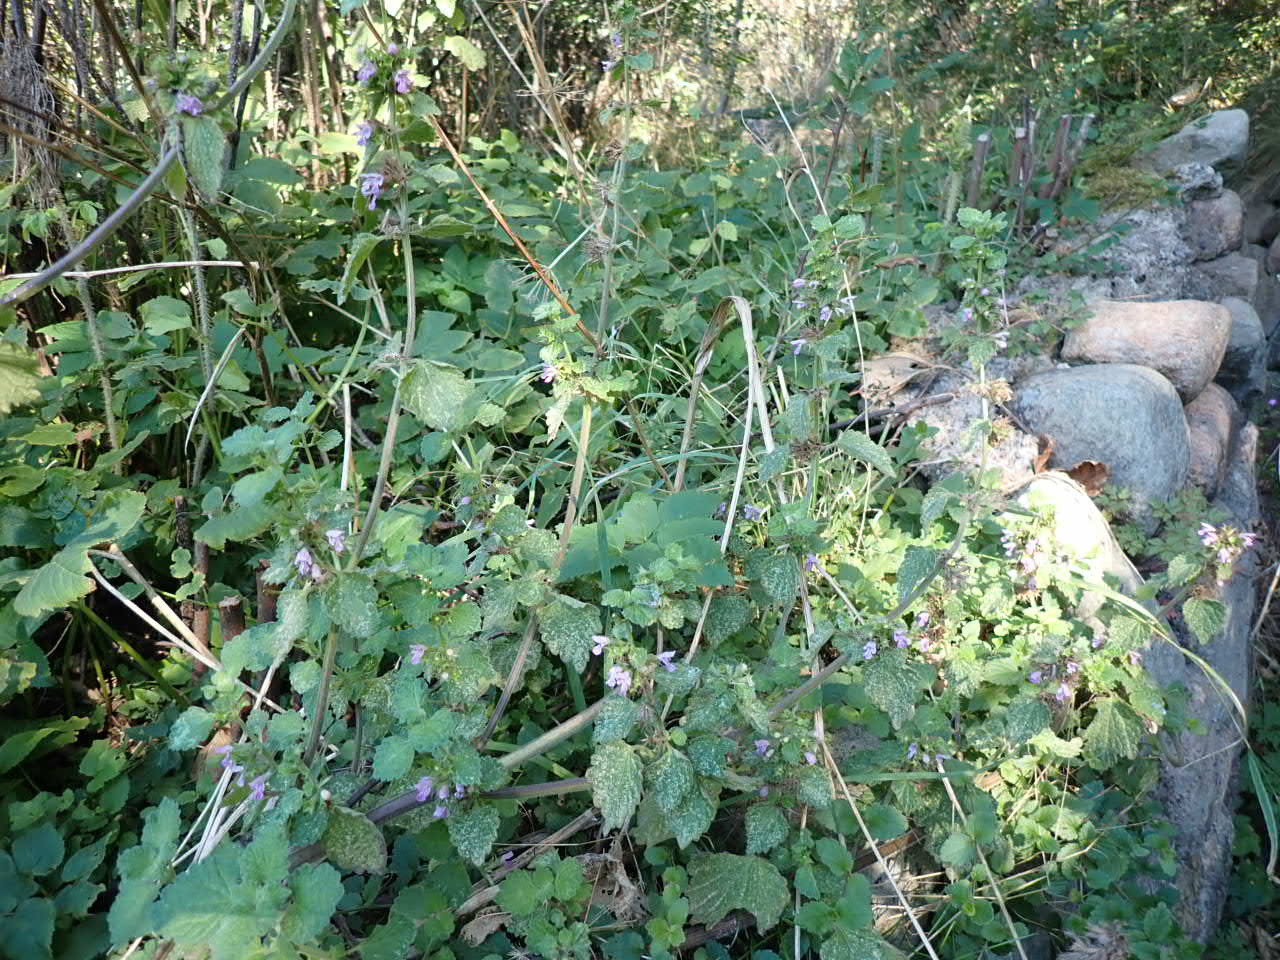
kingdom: Plantae
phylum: Tracheophyta
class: Magnoliopsida
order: Lamiales
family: Lamiaceae
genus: Ballota
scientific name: Ballota nigra
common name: Rød tandbæger
